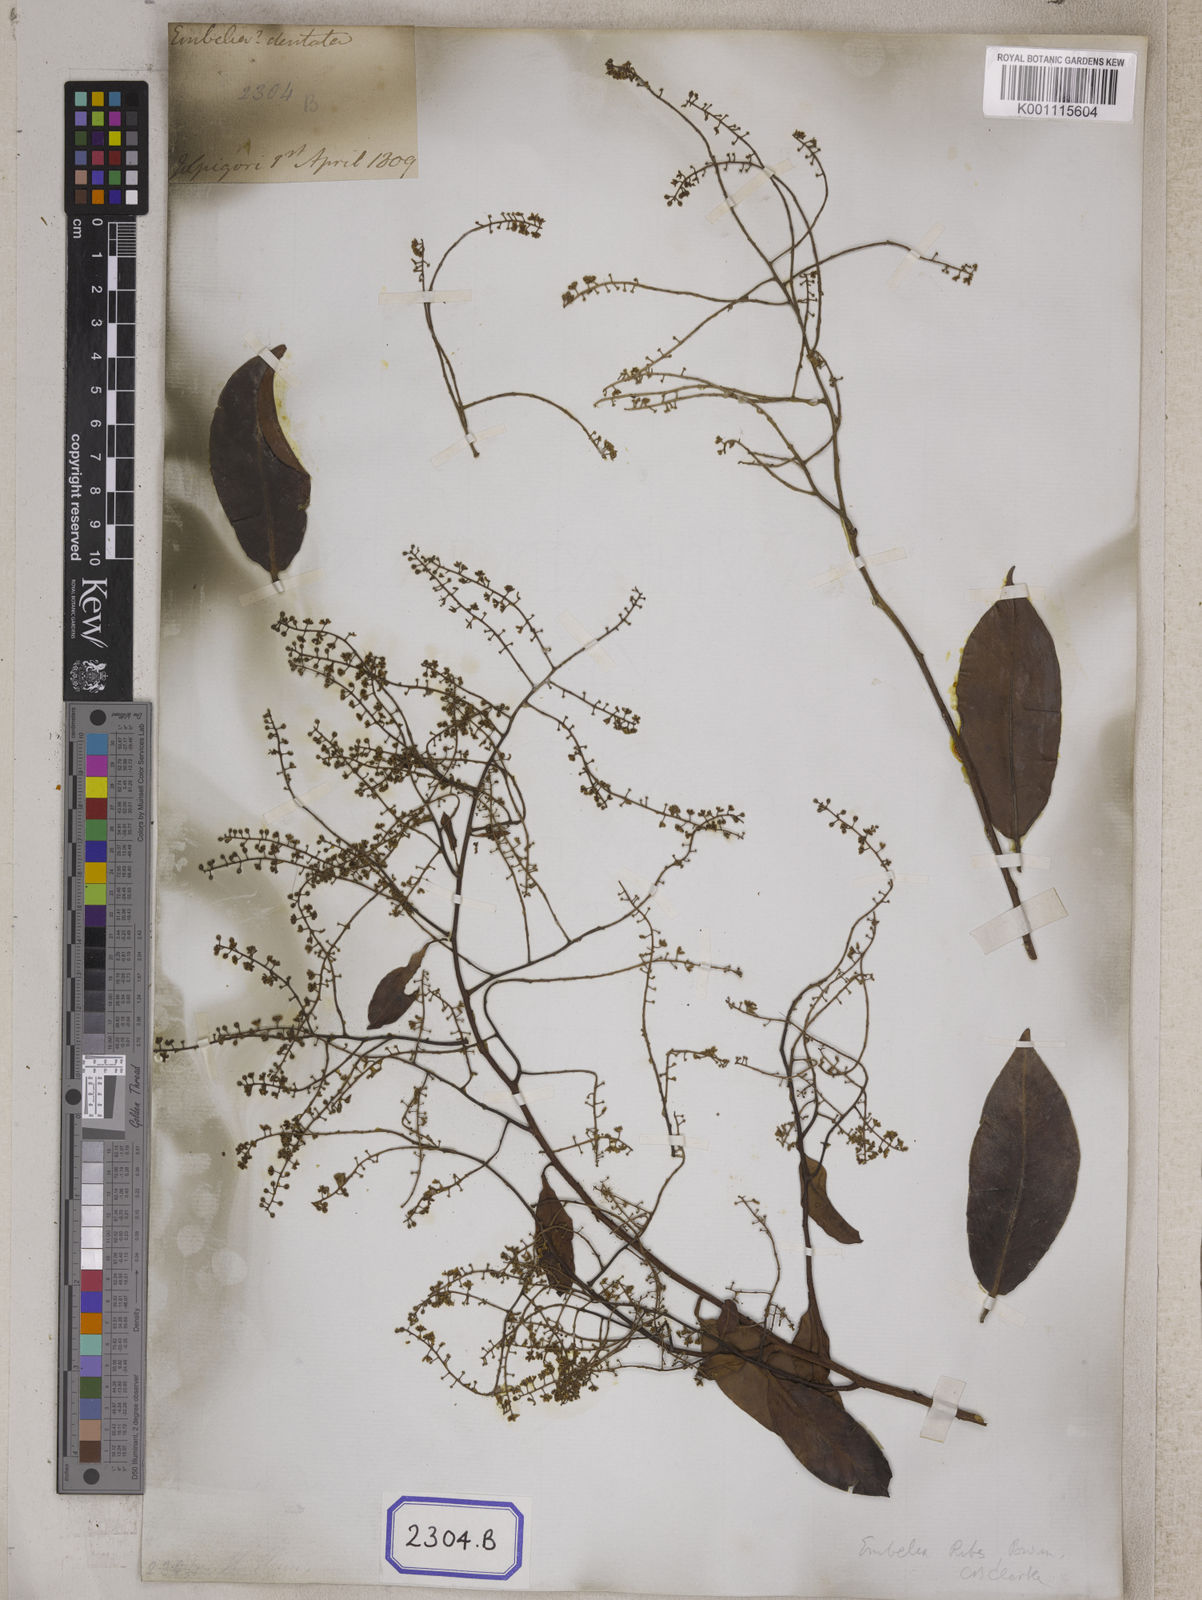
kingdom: Plantae
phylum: Tracheophyta
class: Magnoliopsida
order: Ericales
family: Primulaceae
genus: Embelia
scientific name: Embelia ribes
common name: Vidanga
